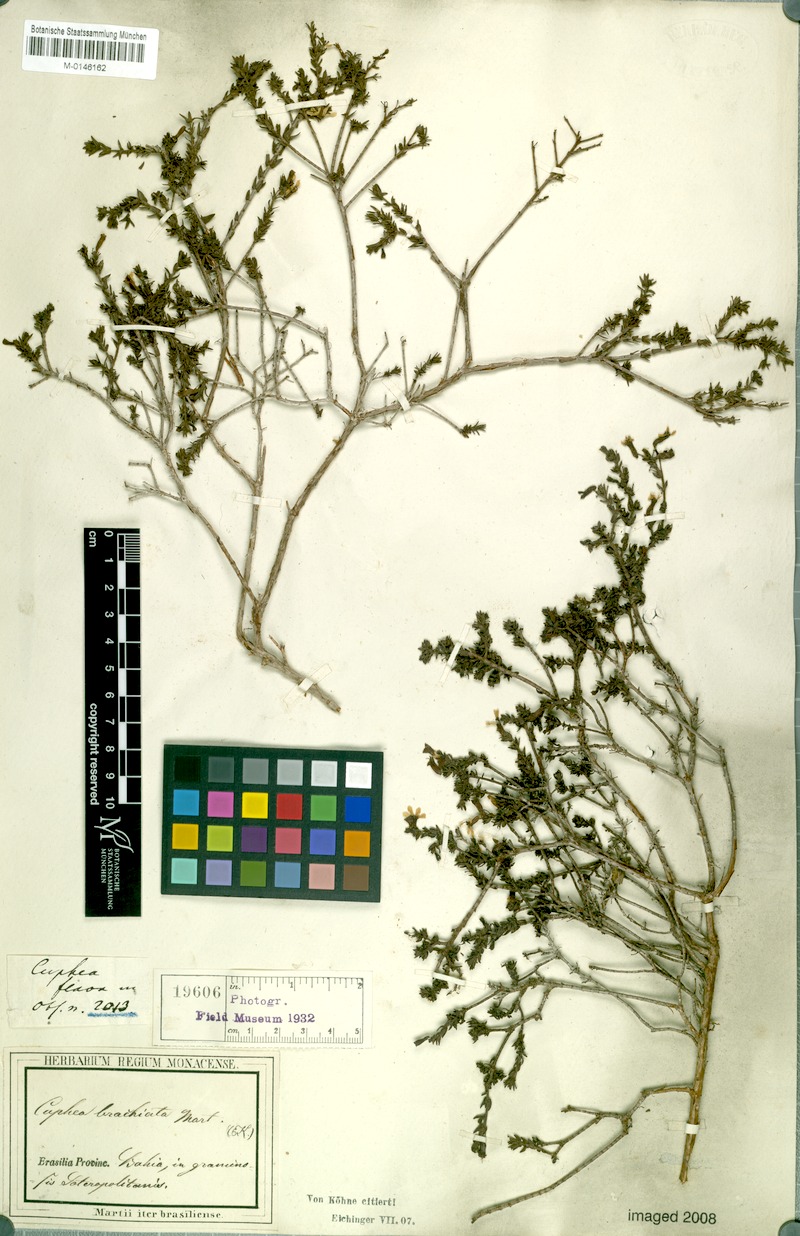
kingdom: Plantae
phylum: Tracheophyta
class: Magnoliopsida
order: Myrtales
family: Lythraceae
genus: Cuphea
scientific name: Cuphea brachiata
